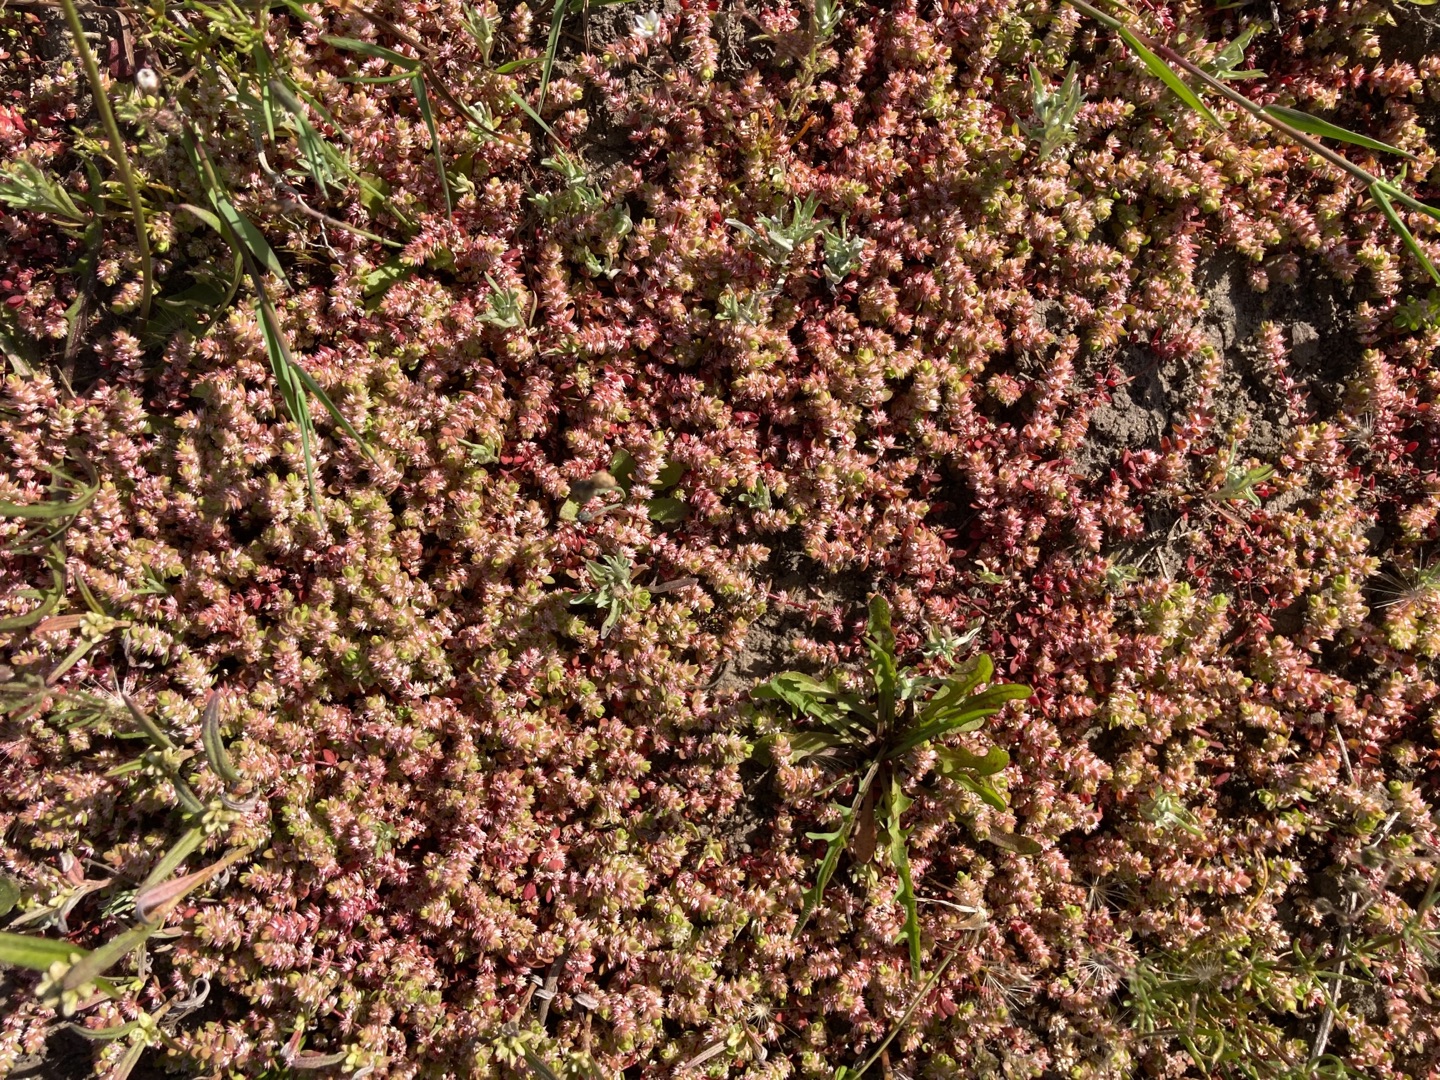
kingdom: Plantae
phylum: Tracheophyta
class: Magnoliopsida
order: Caryophyllales
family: Caryophyllaceae
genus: Illecebrum
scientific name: Illecebrum verticillatum
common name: Bruskbæger
